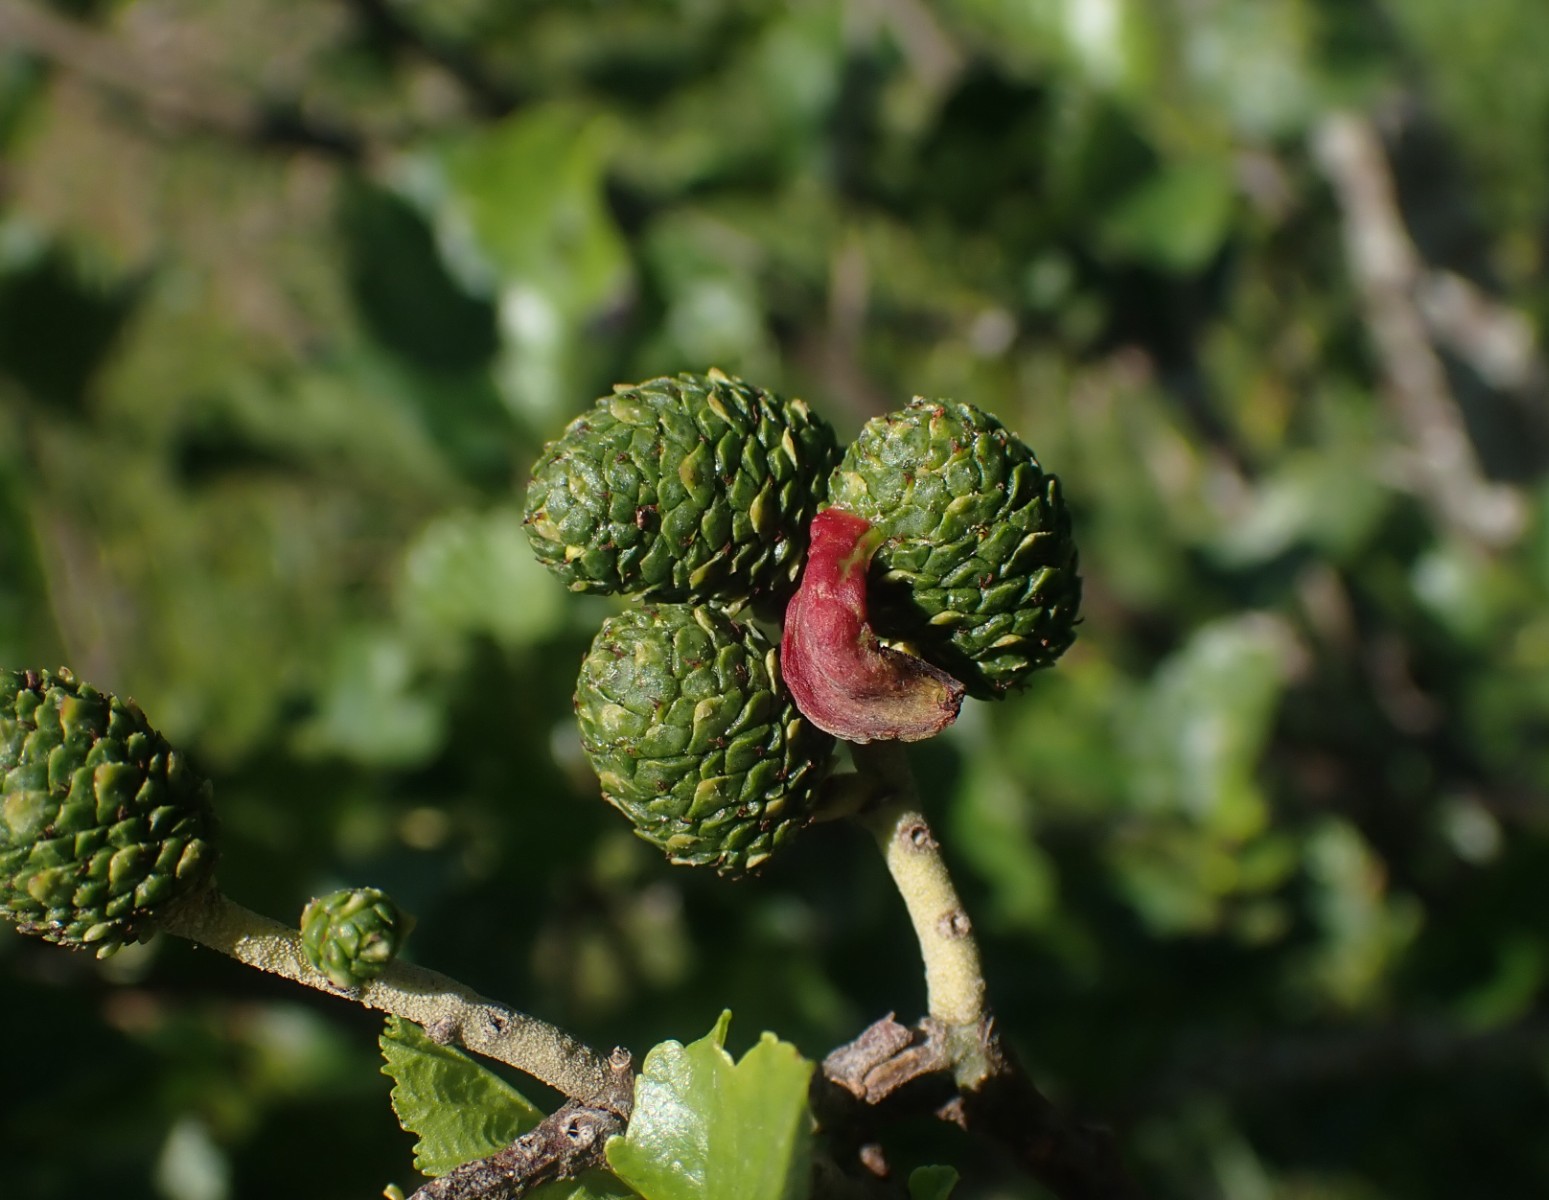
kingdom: Fungi
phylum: Ascomycota
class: Taphrinomycetes
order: Taphrinales
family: Taphrinaceae
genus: Taphrina
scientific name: Taphrina alni
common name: Alder tongue
